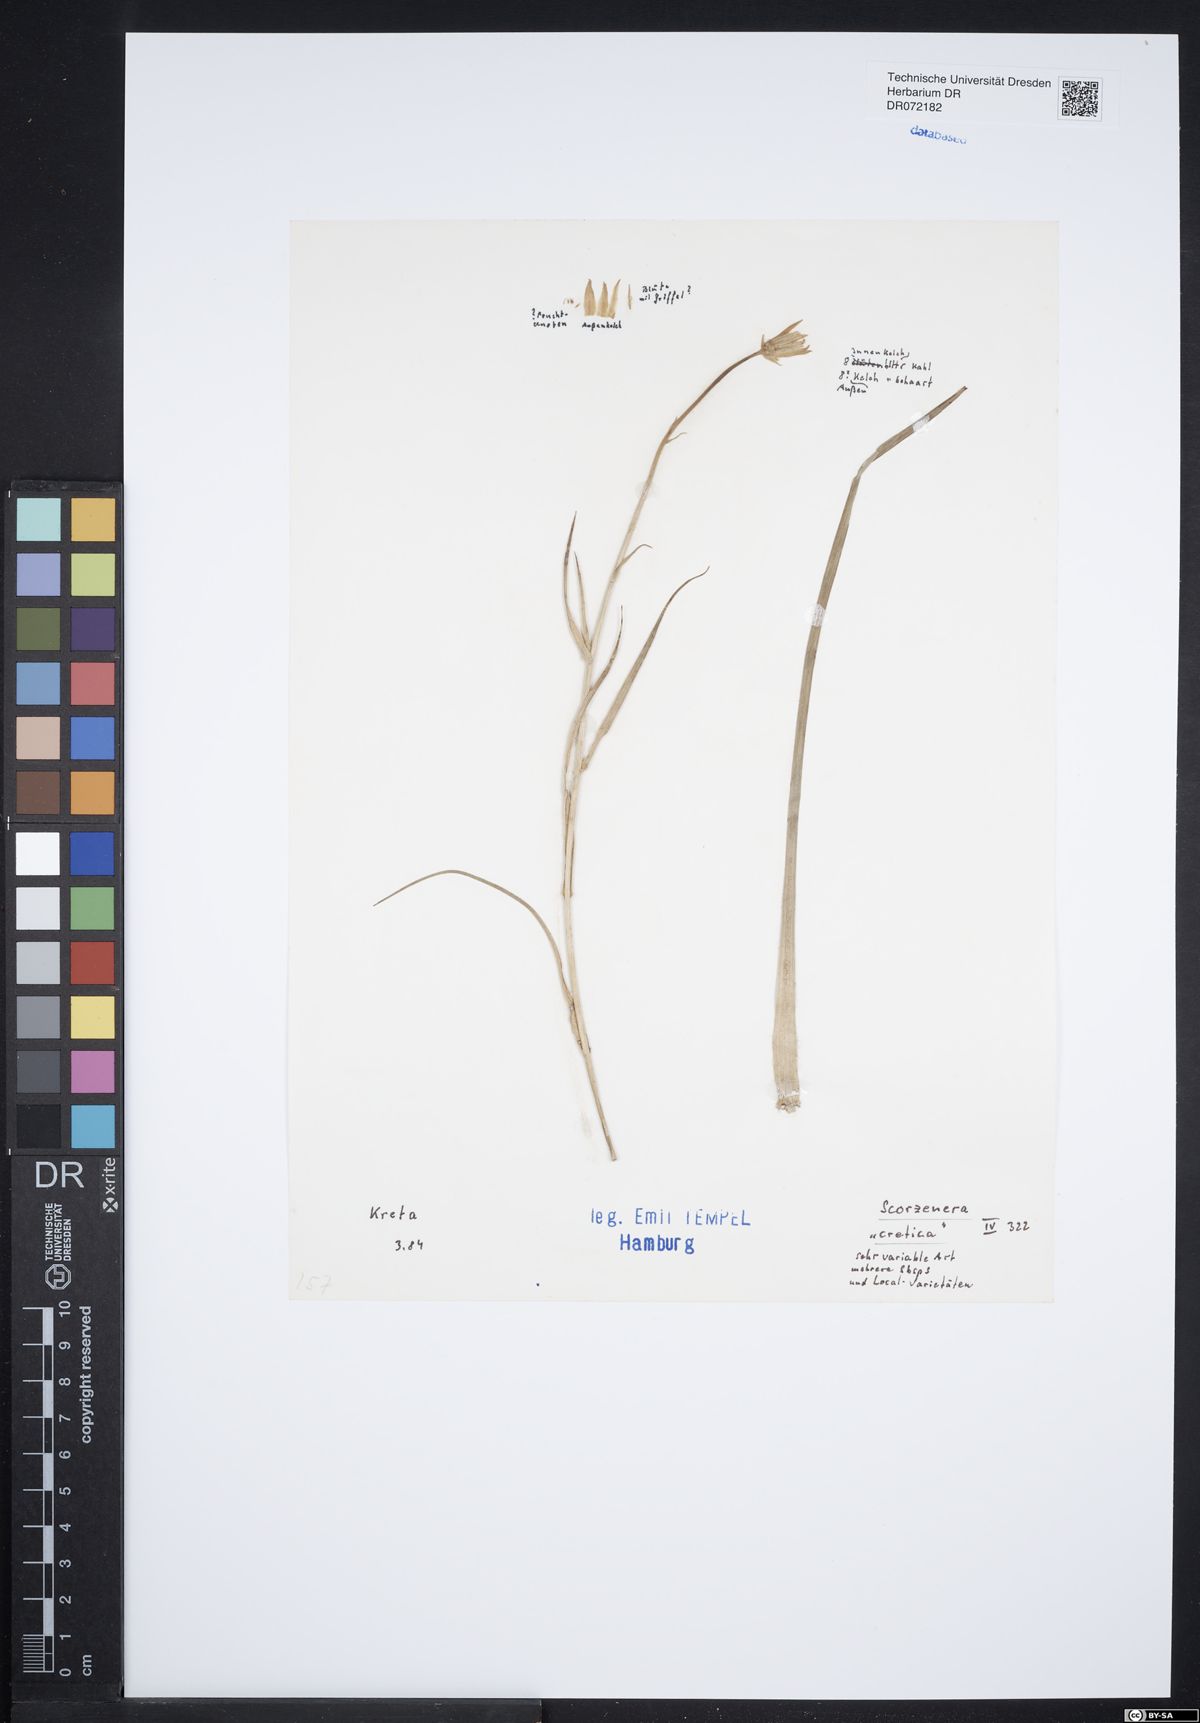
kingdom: Plantae
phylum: Tracheophyta
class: Magnoliopsida
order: Asterales
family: Asteraceae
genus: Gelasia
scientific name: Gelasia cretica
